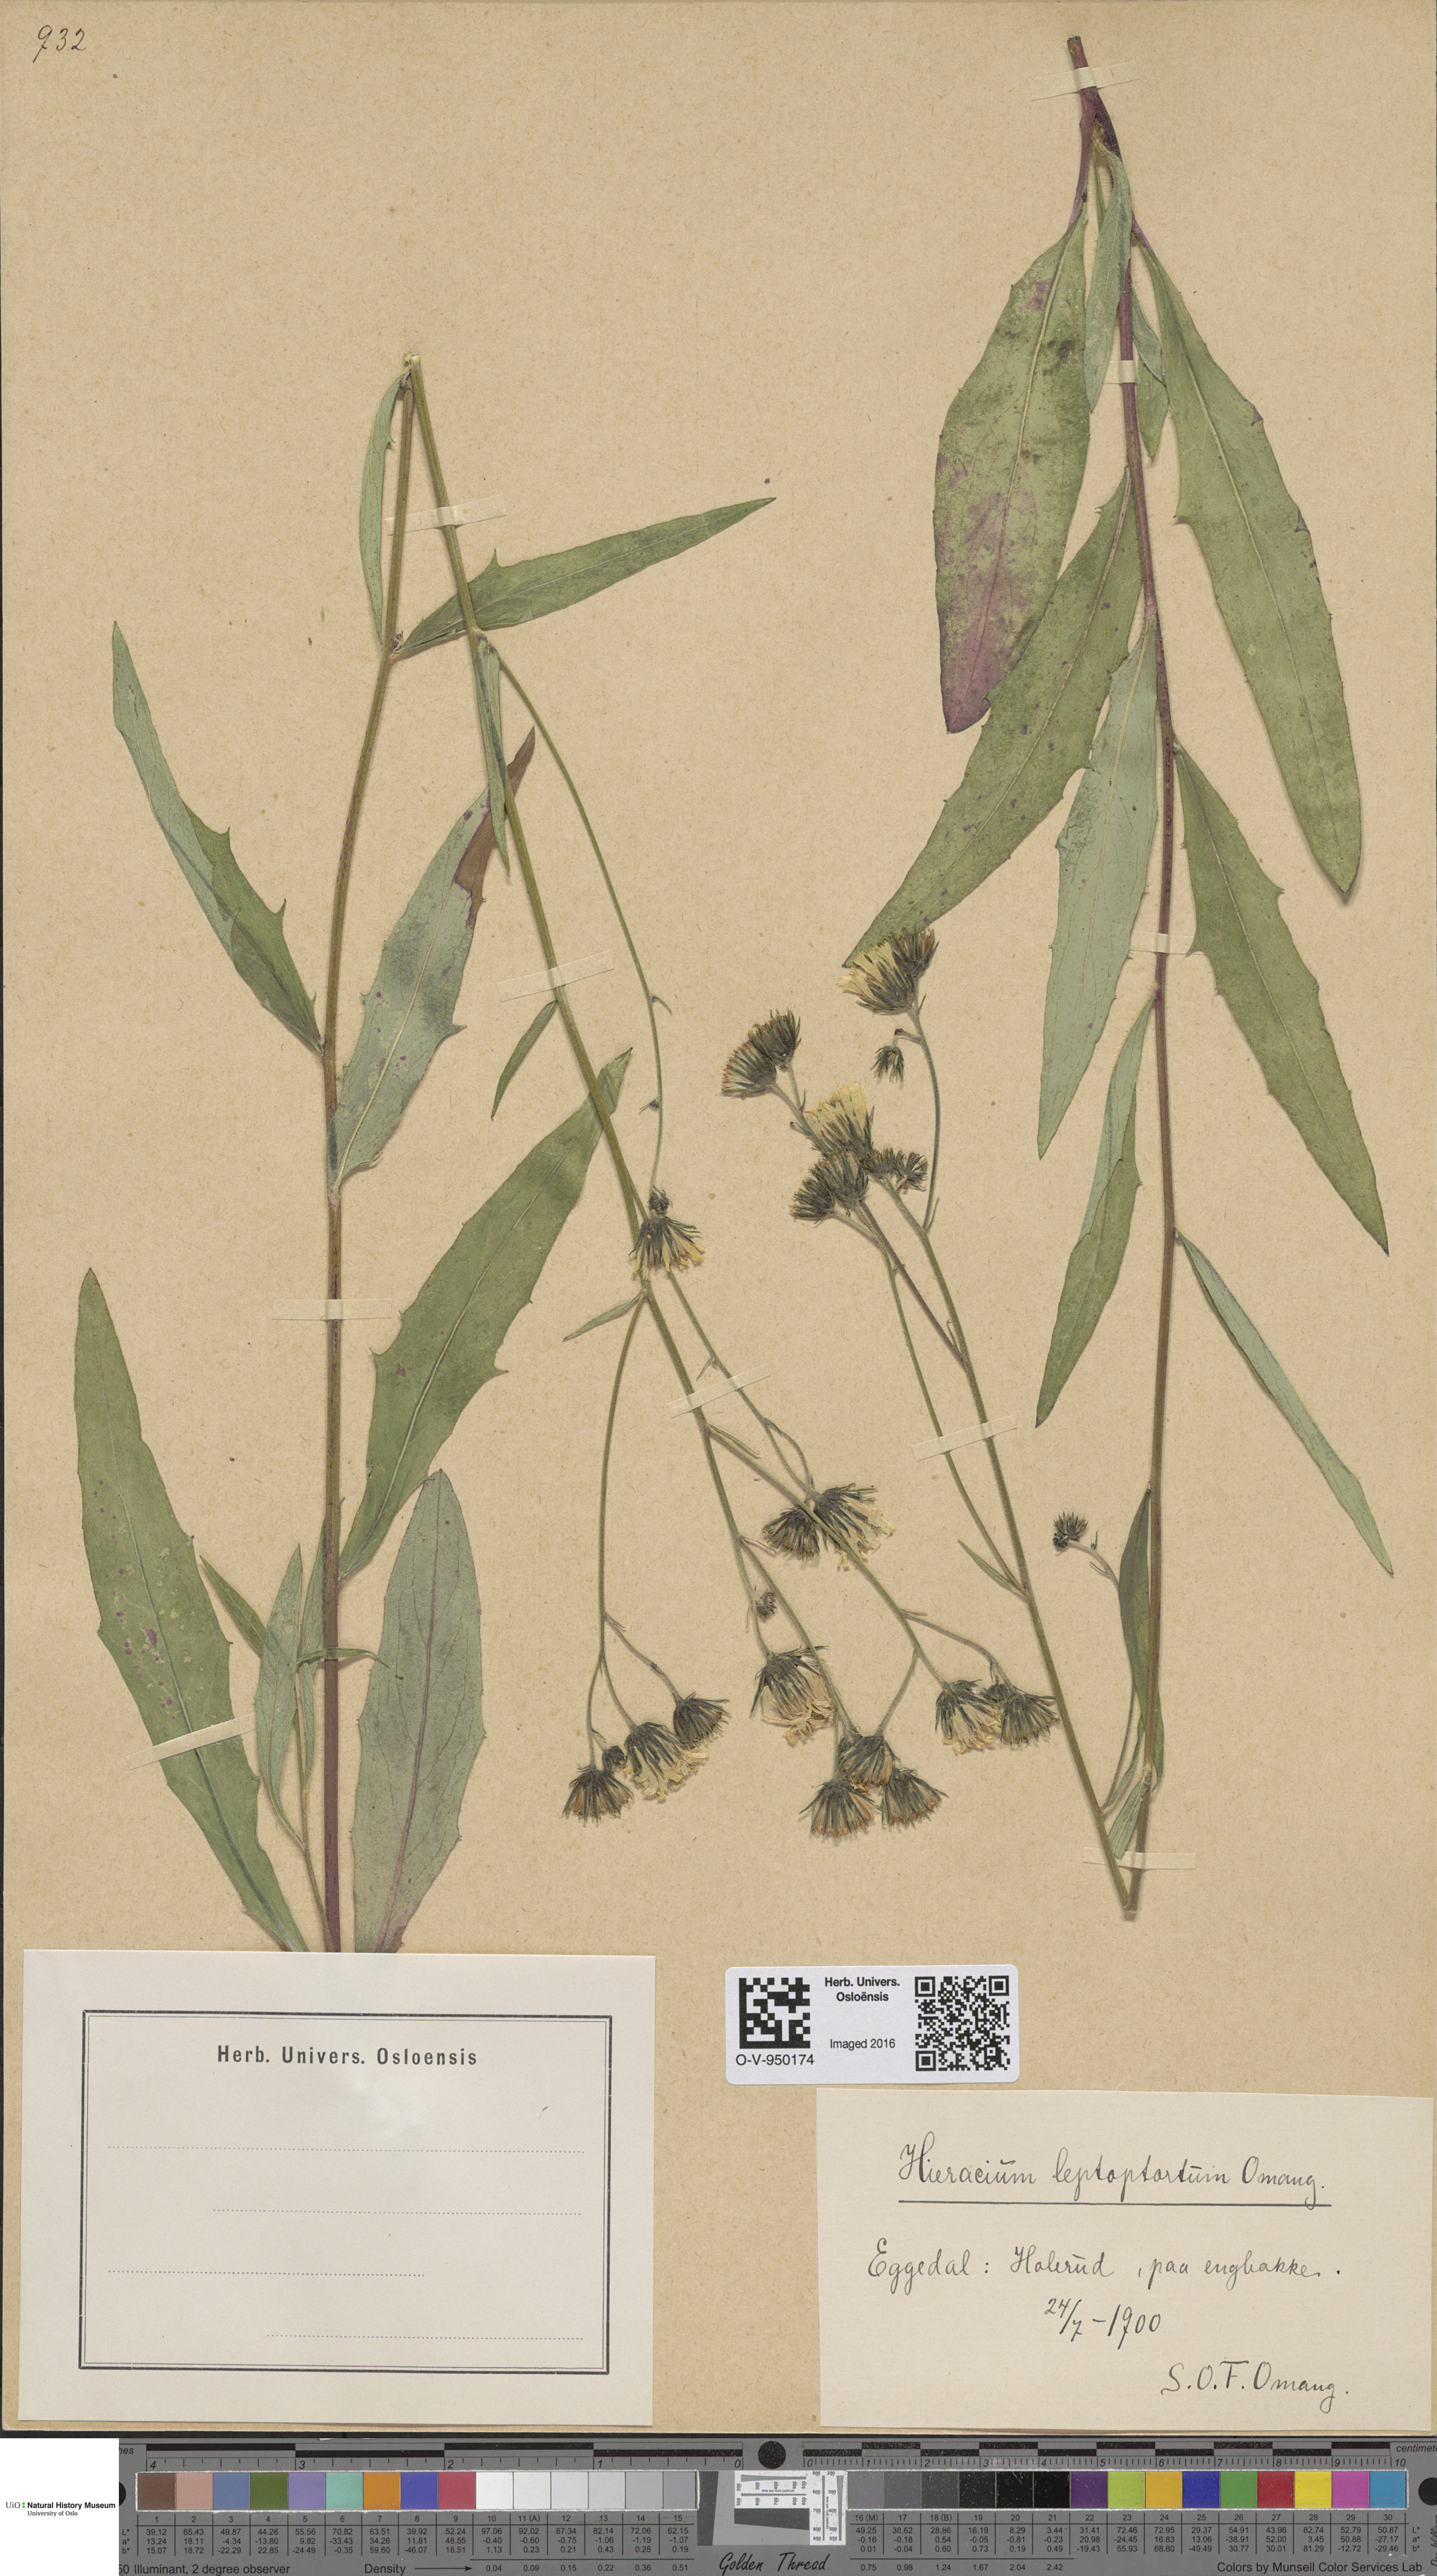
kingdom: Plantae
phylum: Tracheophyta
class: Magnoliopsida
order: Asterales
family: Asteraceae
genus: Hieracium
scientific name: Hieracium
